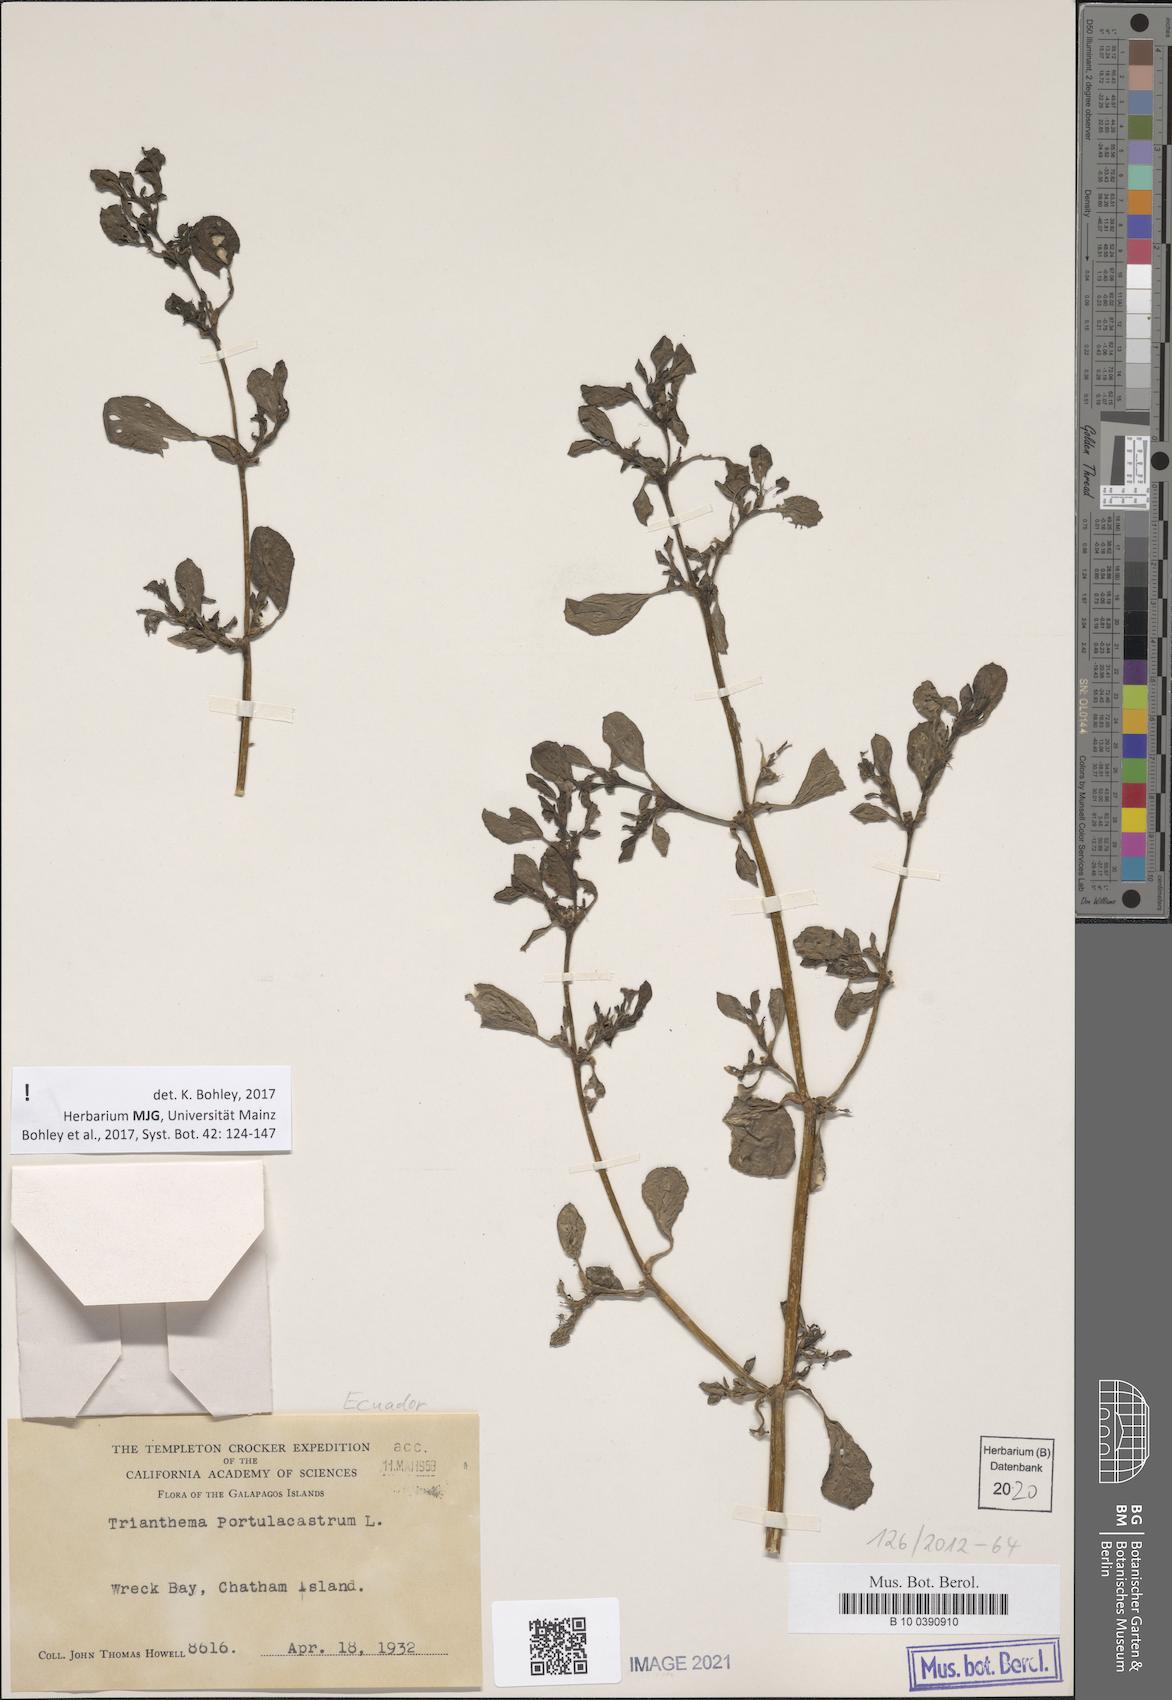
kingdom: Plantae
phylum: Tracheophyta
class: Magnoliopsida
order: Caryophyllales
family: Aizoaceae
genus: Trianthema
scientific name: Trianthema portulacastrum
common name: Desert horsepurslane
